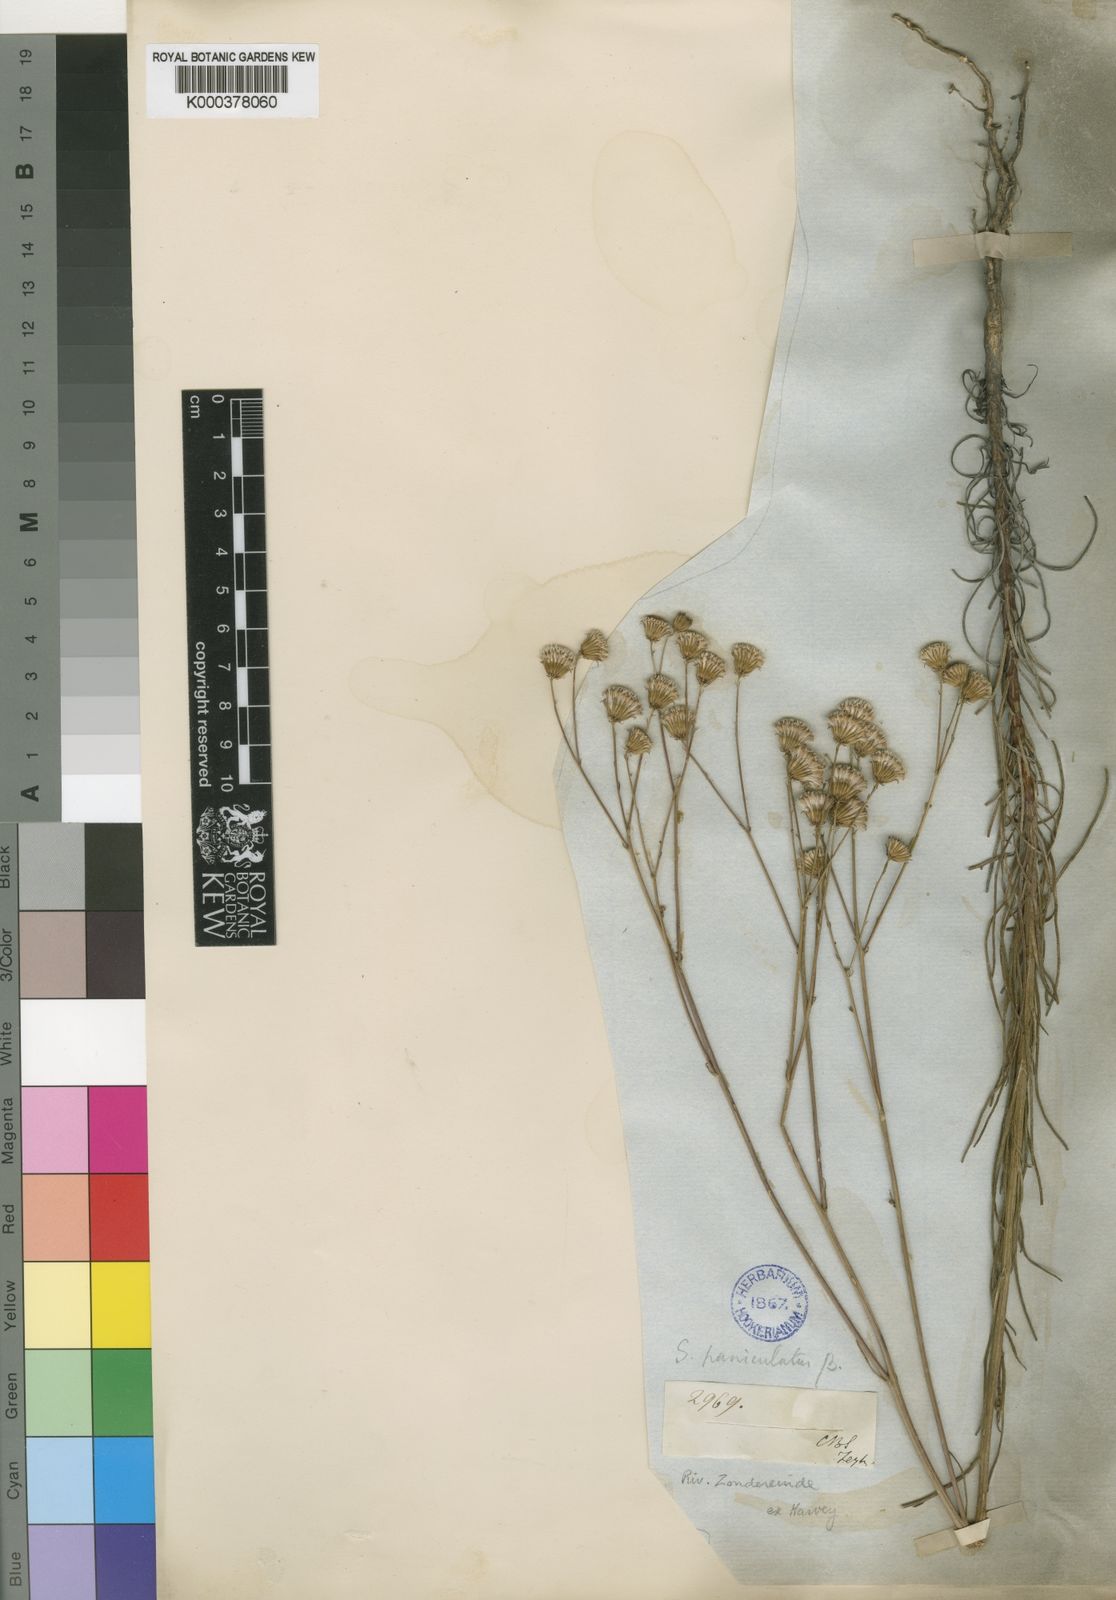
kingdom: Plantae
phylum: Tracheophyta
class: Magnoliopsida
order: Asterales
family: Asteraceae
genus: Senecio
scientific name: Senecio
